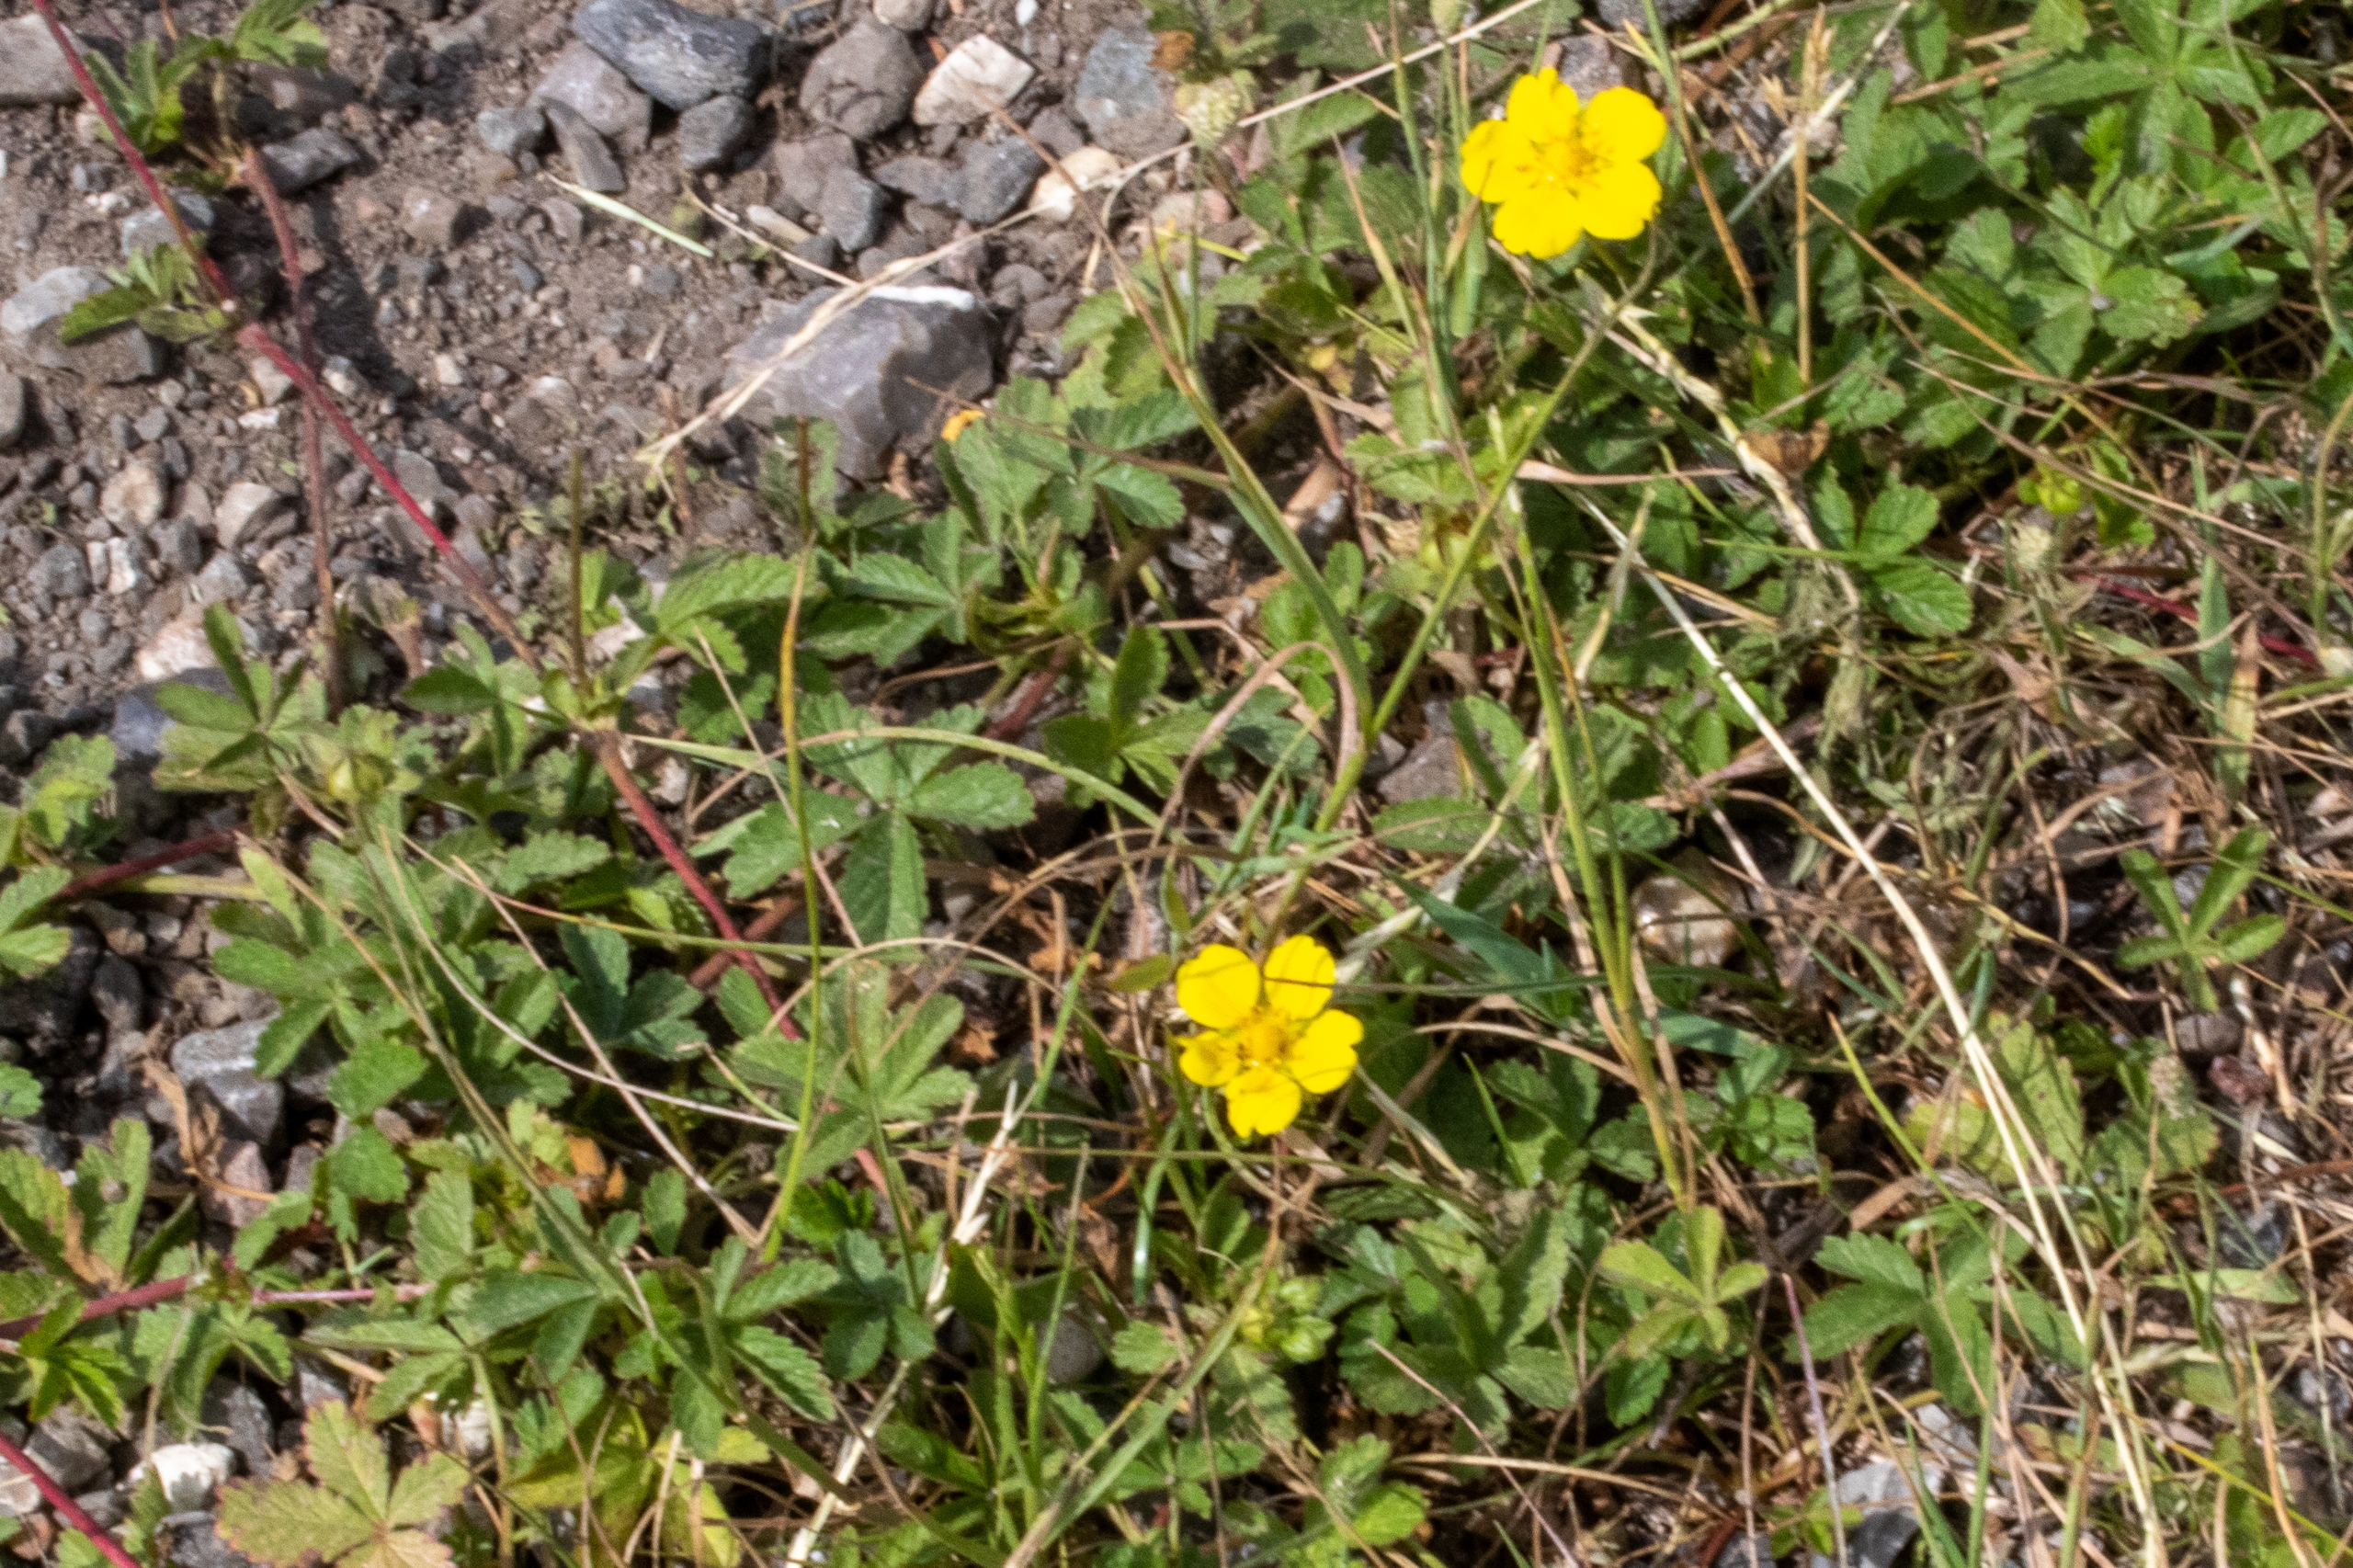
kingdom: Plantae
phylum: Tracheophyta
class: Magnoliopsida
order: Rosales
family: Rosaceae
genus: Potentilla
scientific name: Potentilla reptans
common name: Krybende potentil
